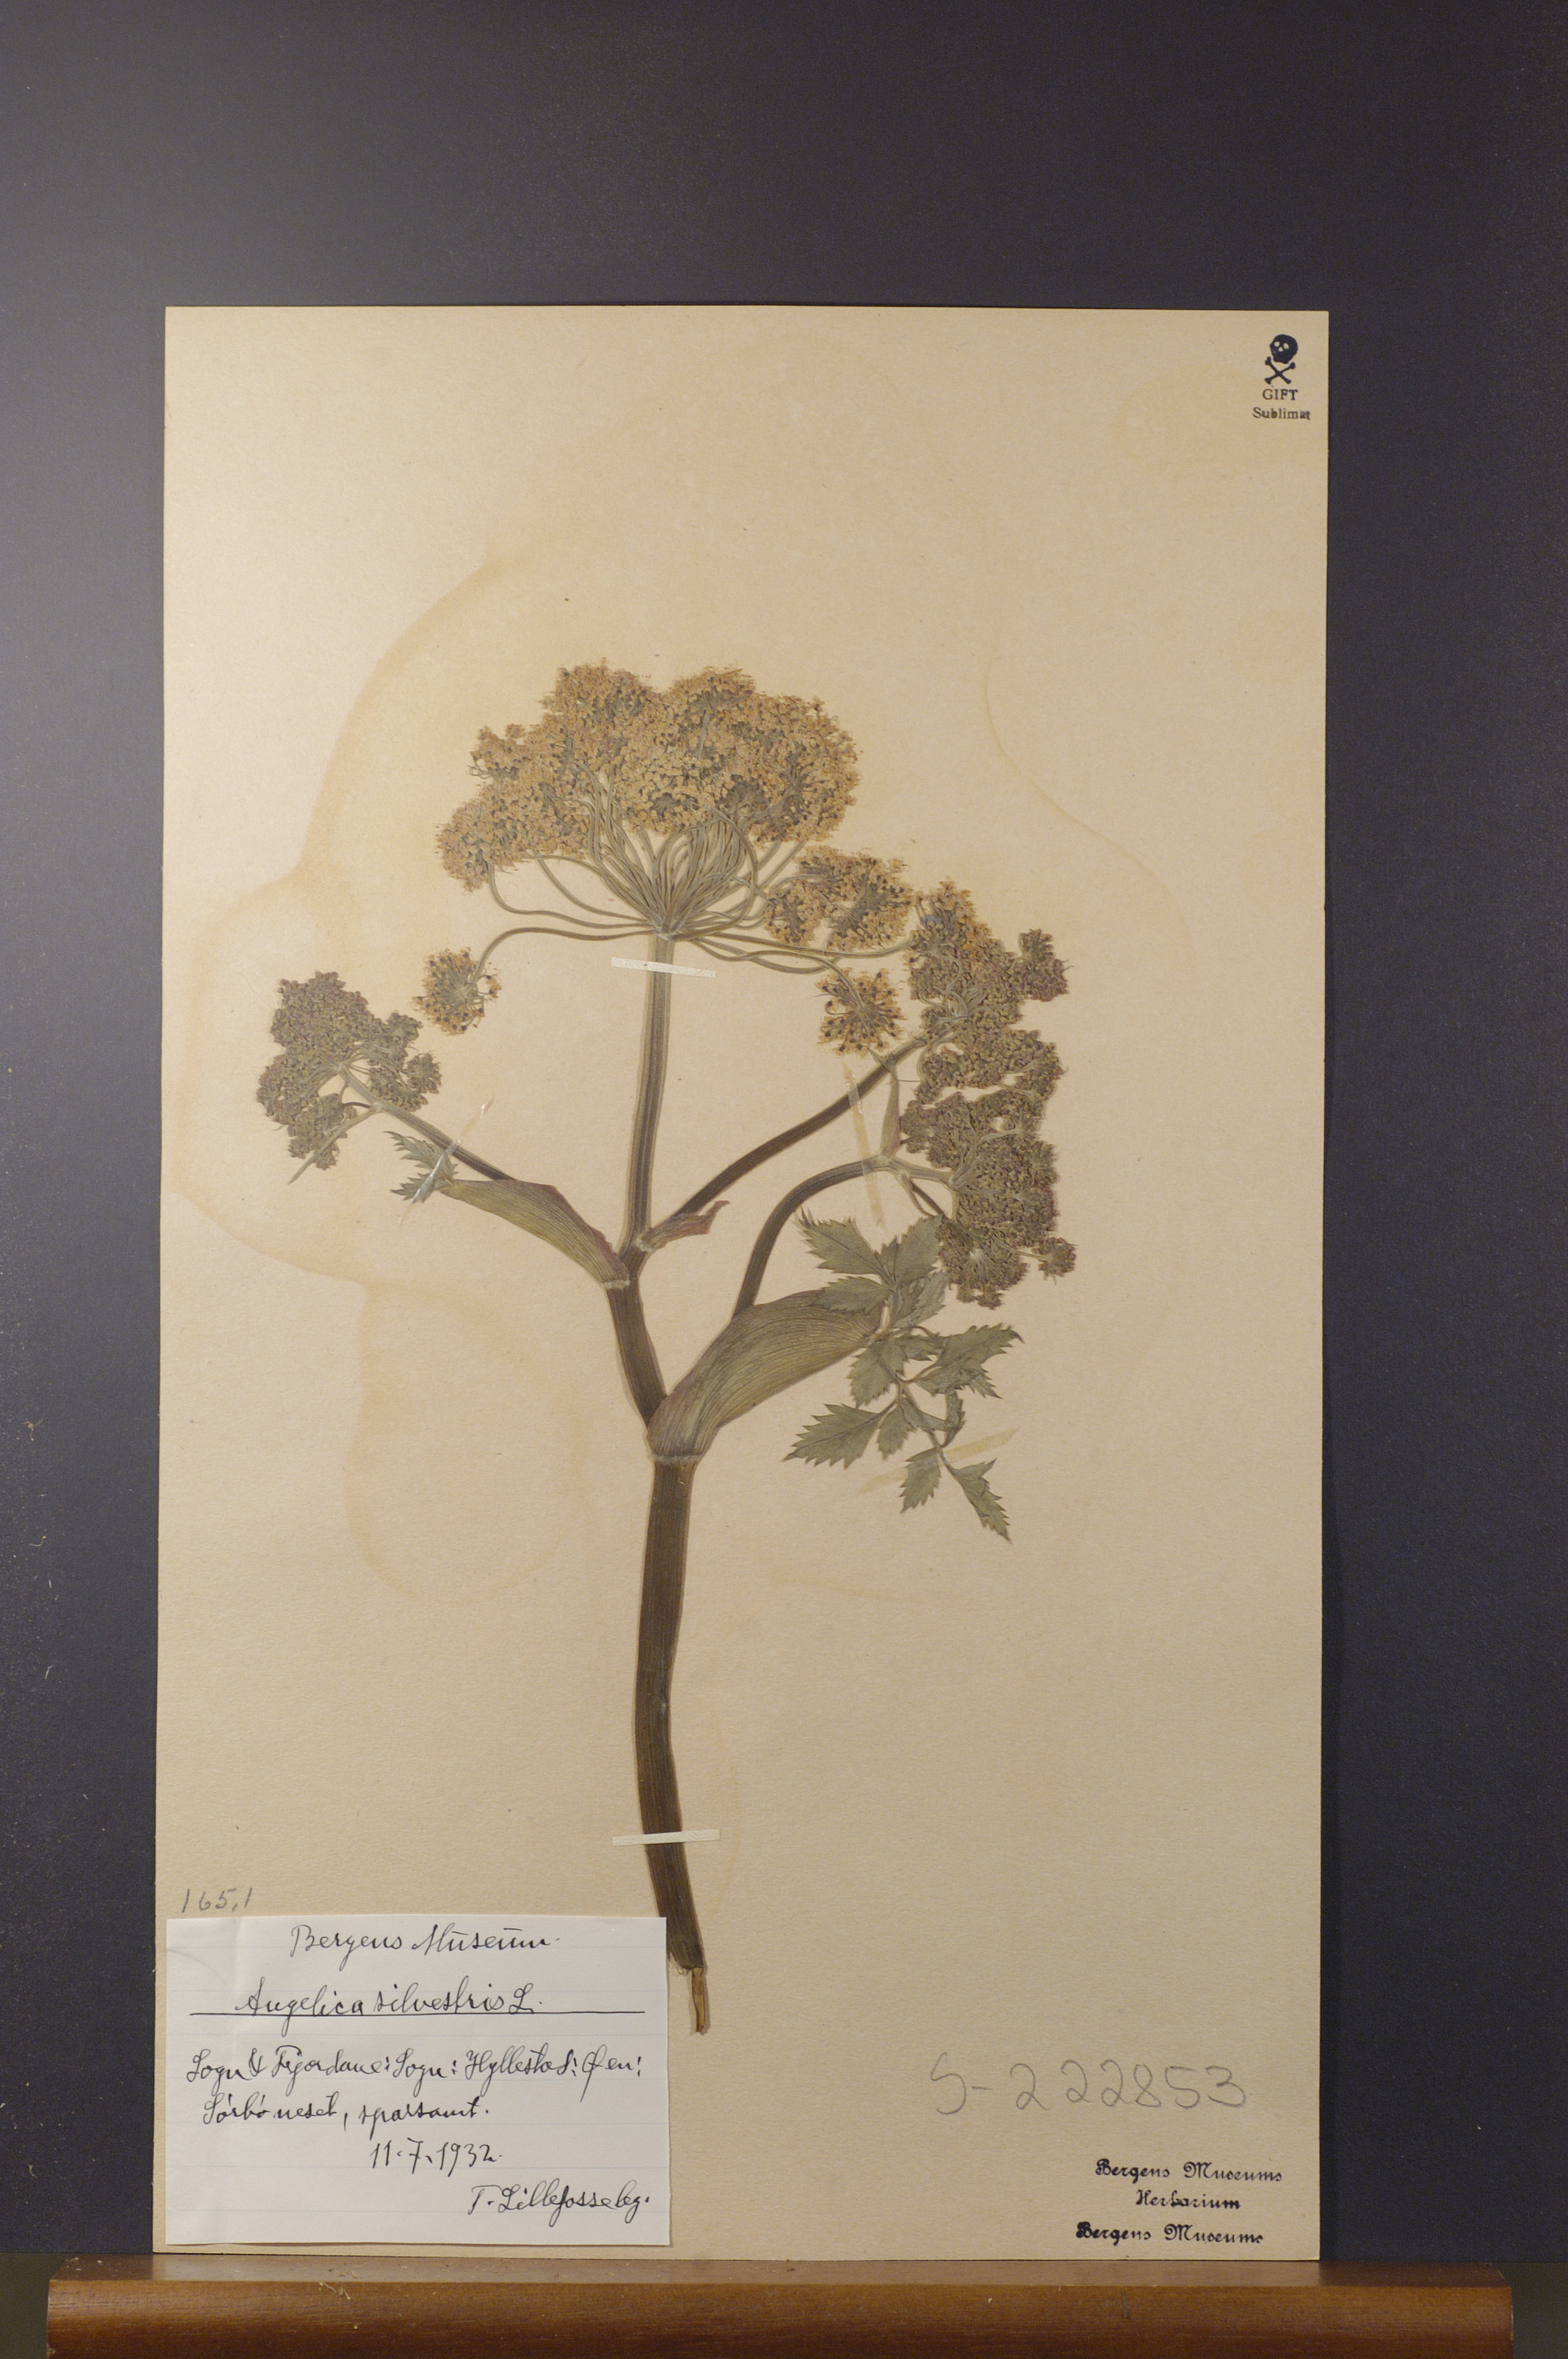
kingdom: Plantae
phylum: Tracheophyta
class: Magnoliopsida
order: Apiales
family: Apiaceae
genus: Angelica
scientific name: Angelica sylvestris
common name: Wild angelica
